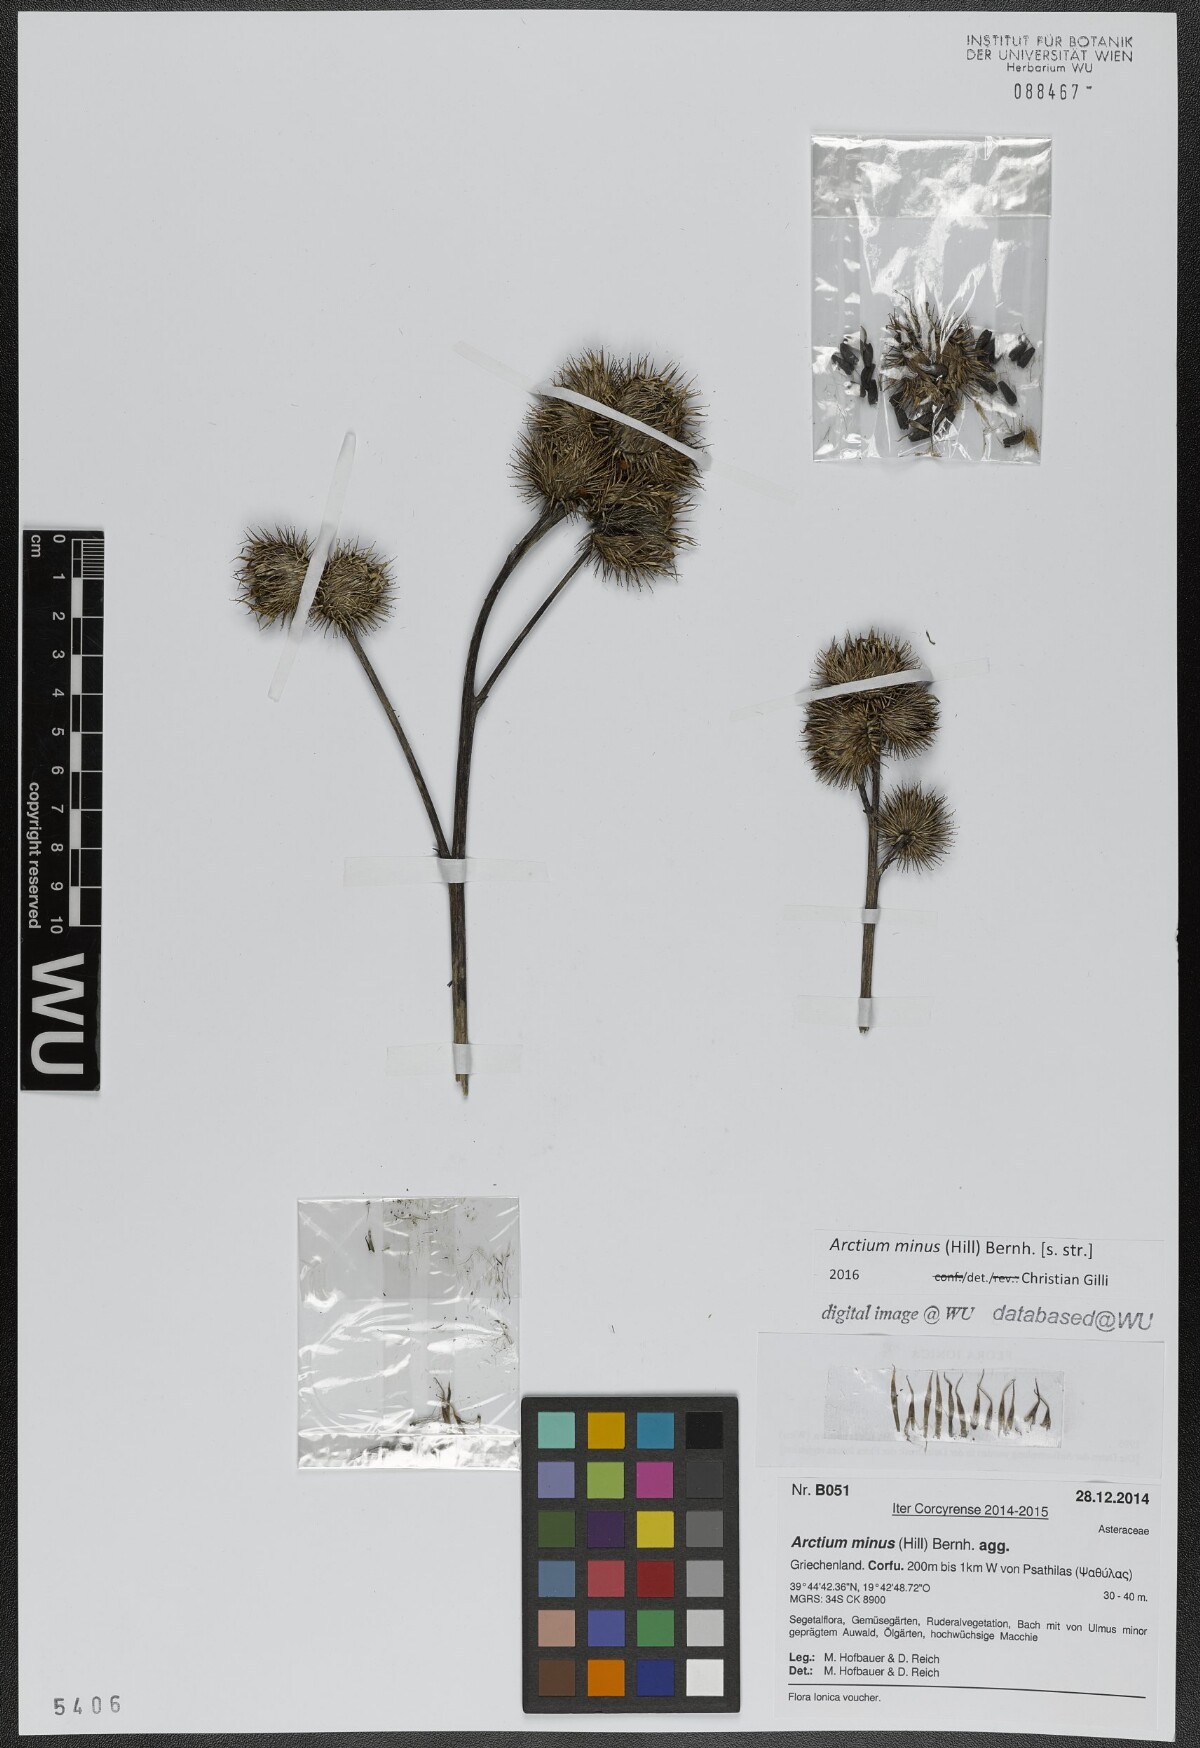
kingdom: Plantae
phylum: Tracheophyta
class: Magnoliopsida
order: Asterales
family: Asteraceae
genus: Arctium
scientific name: Arctium minus
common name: Lesser burdock
